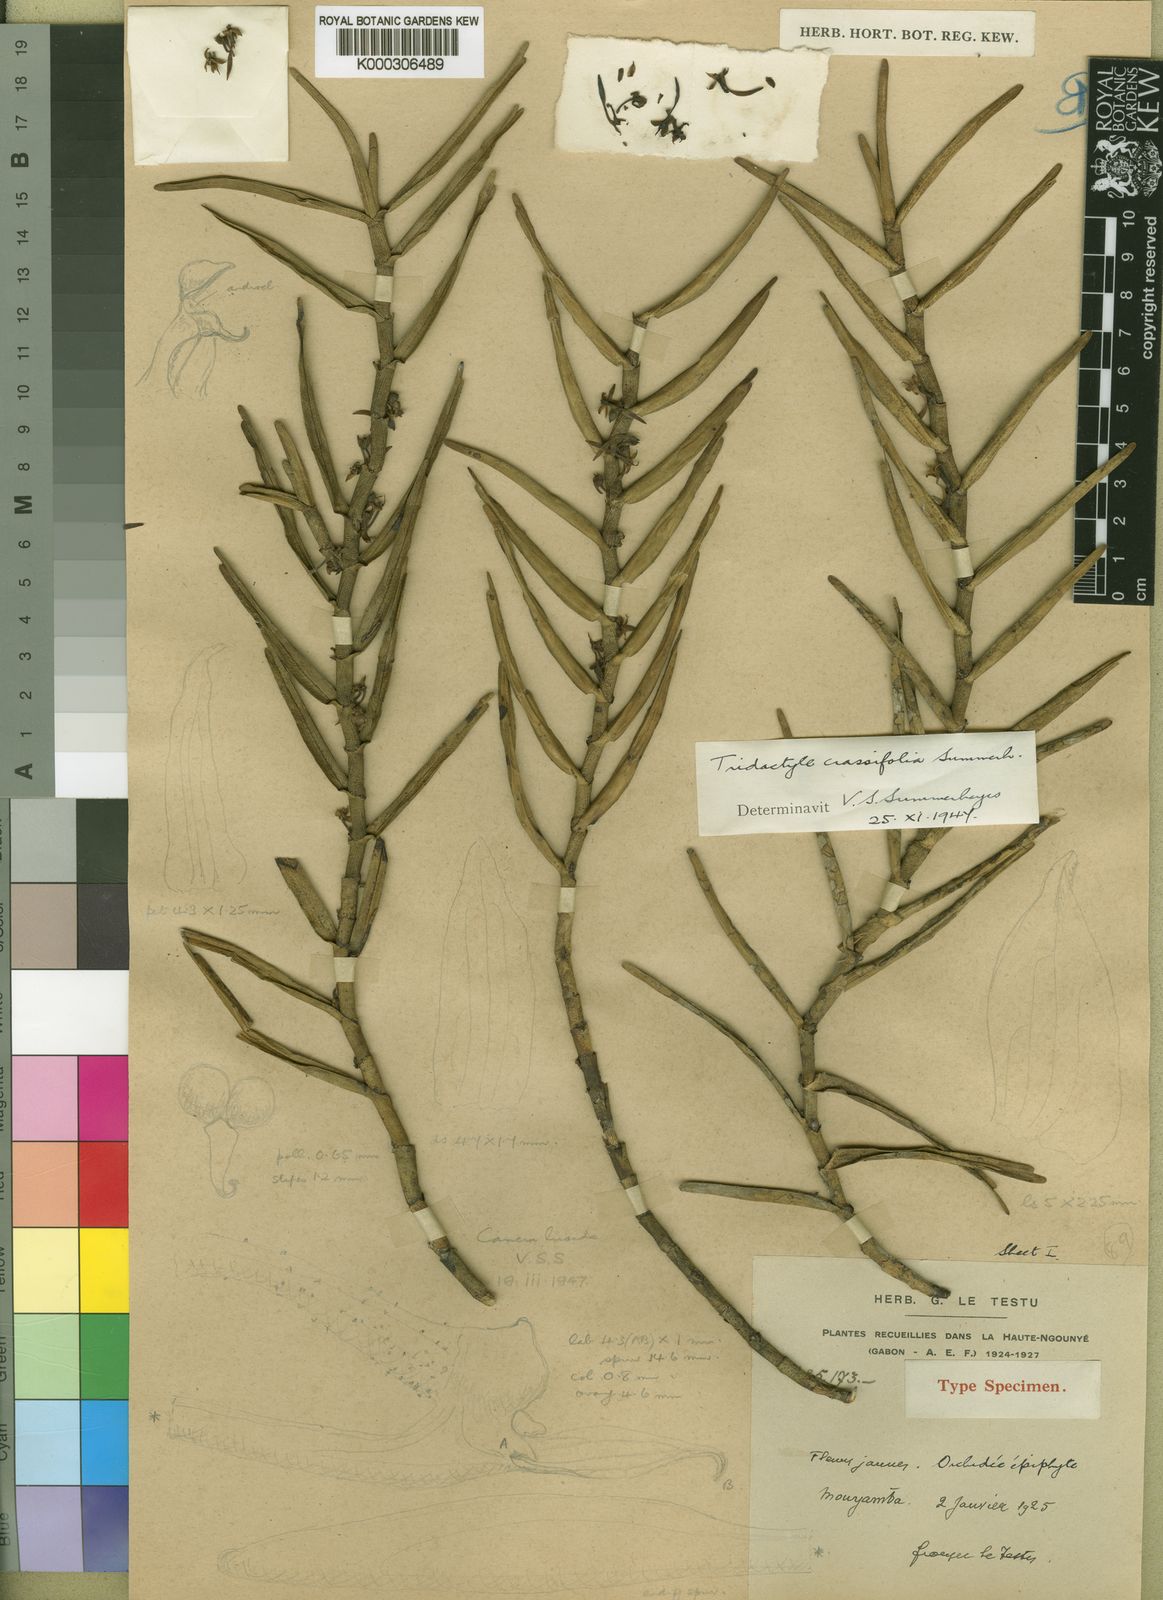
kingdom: Plantae
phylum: Tracheophyta
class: Liliopsida
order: Asparagales
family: Orchidaceae
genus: Tridactyle
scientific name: Tridactyle crassifolia
